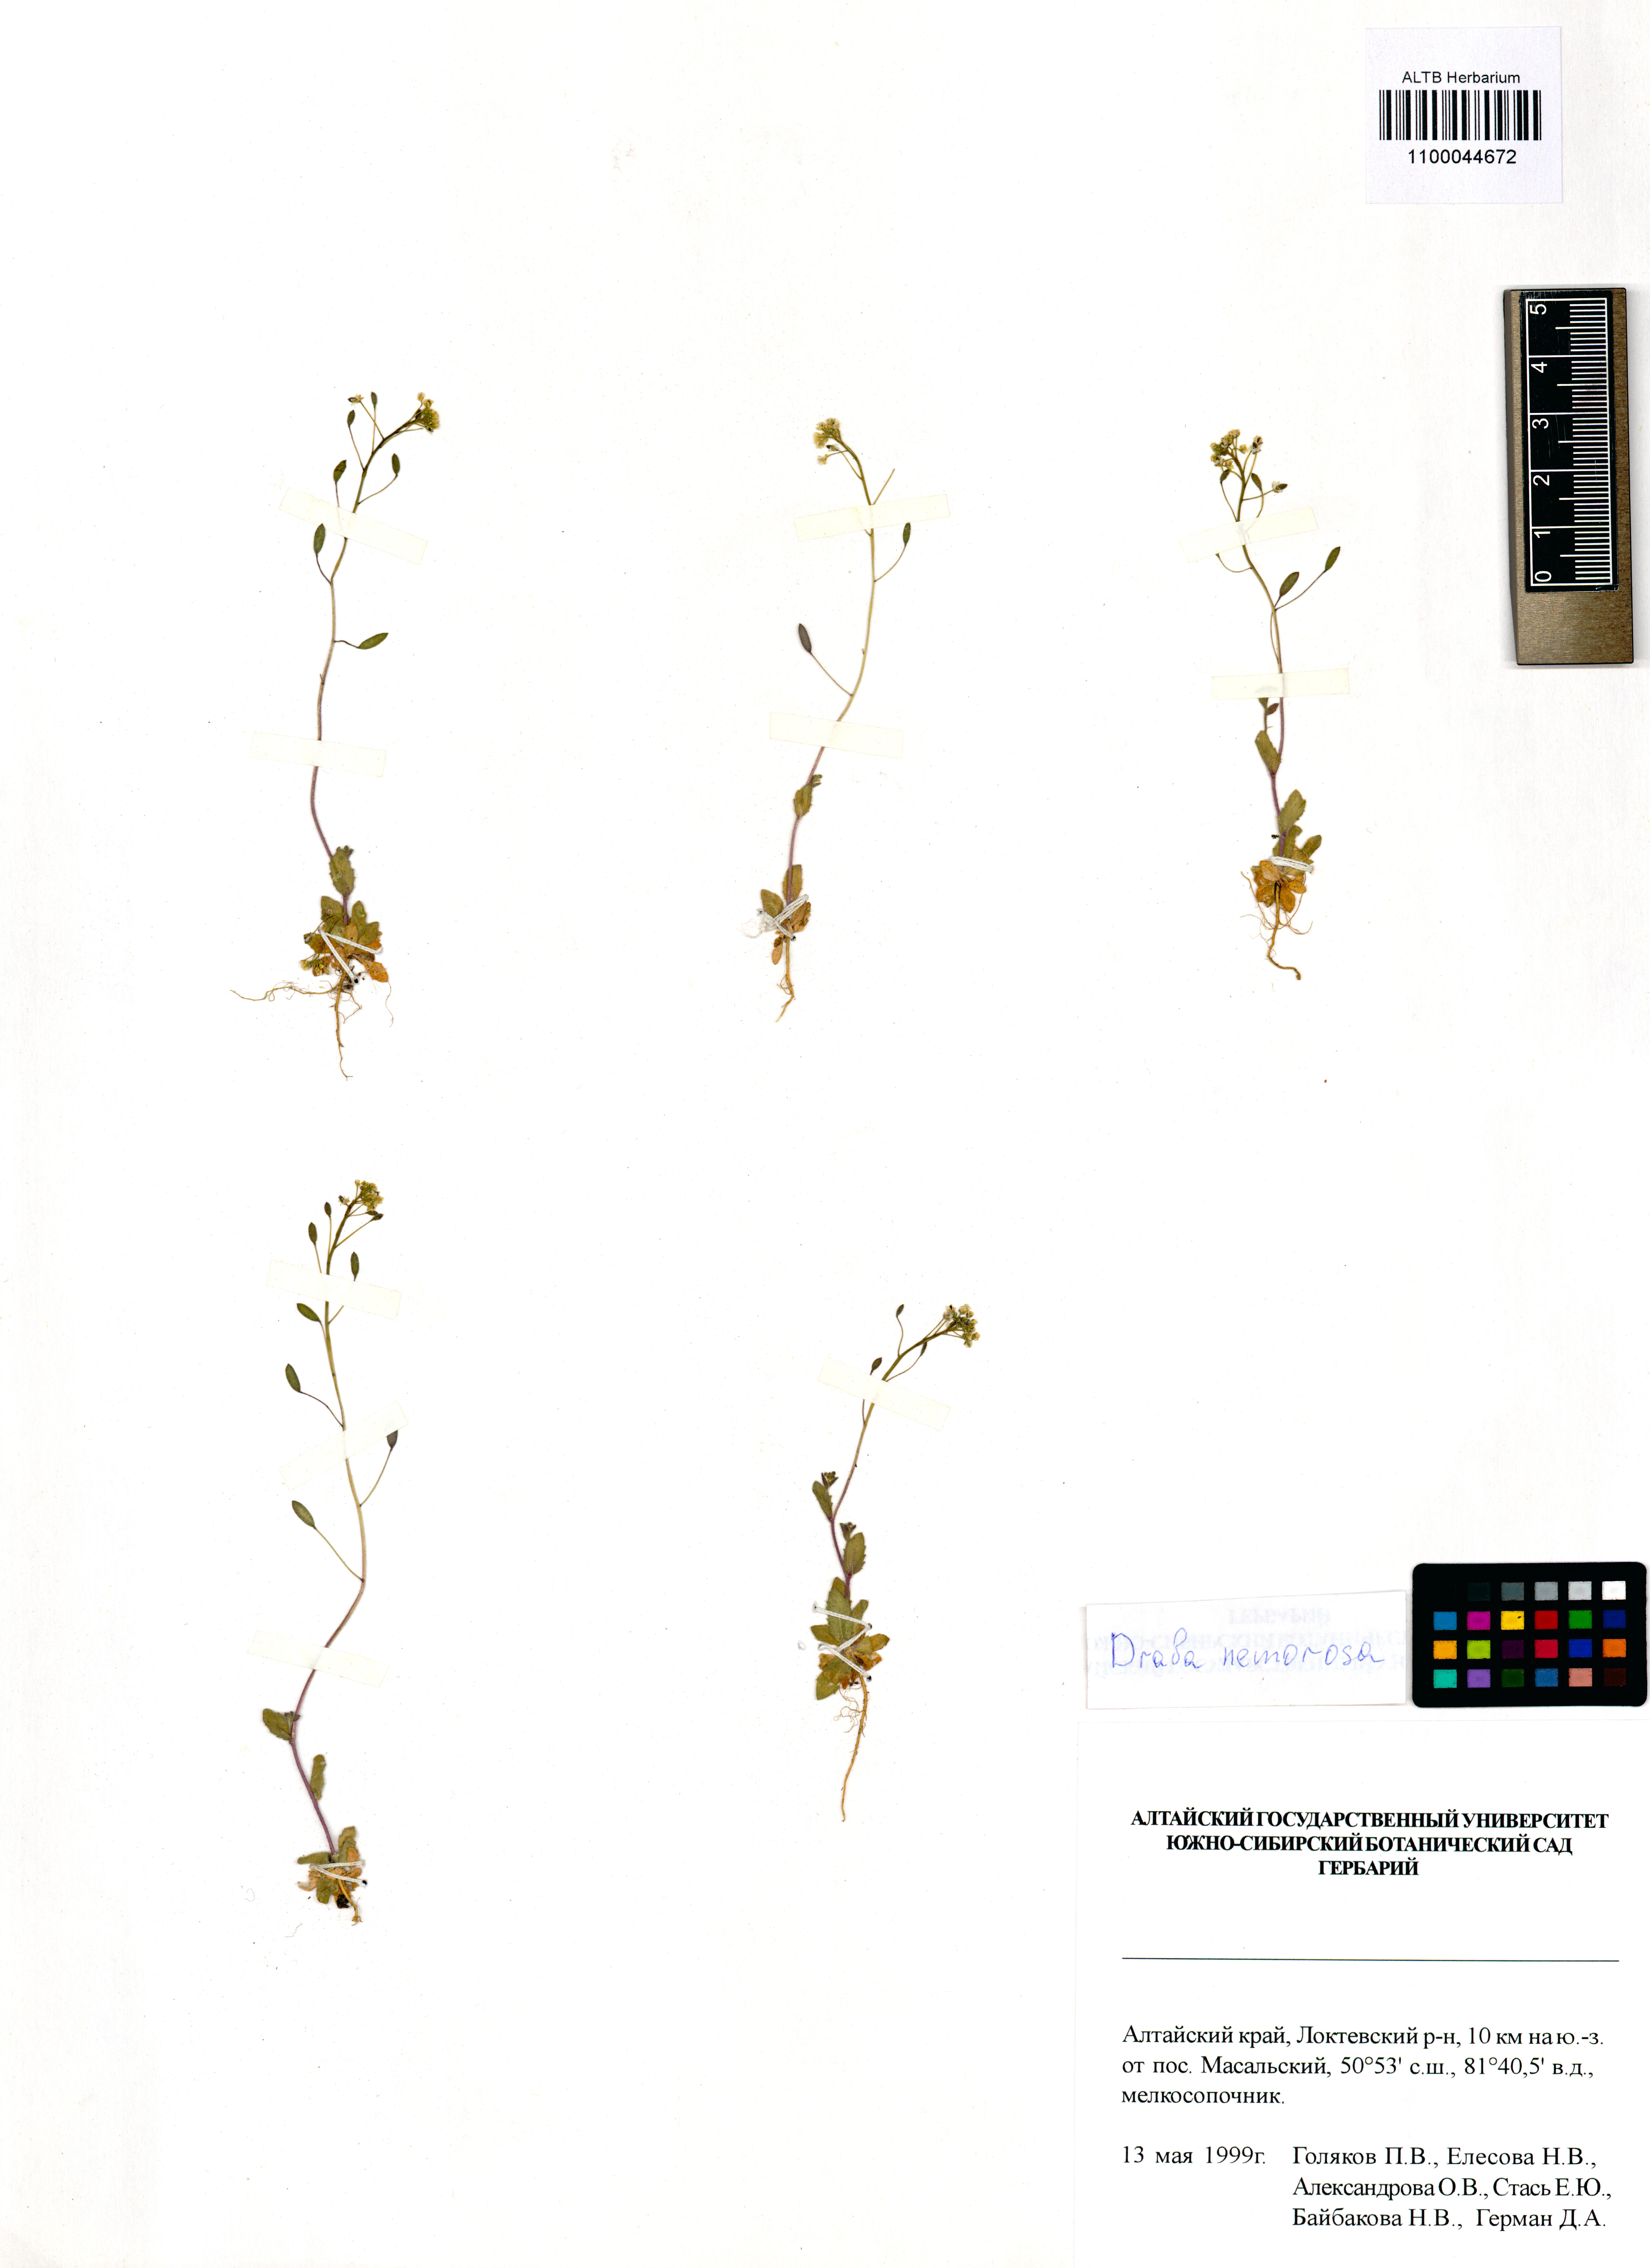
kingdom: Plantae
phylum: Tracheophyta
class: Magnoliopsida
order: Brassicales
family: Brassicaceae
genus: Draba
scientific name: Draba nemorosa
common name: Wood whitlow-grass
